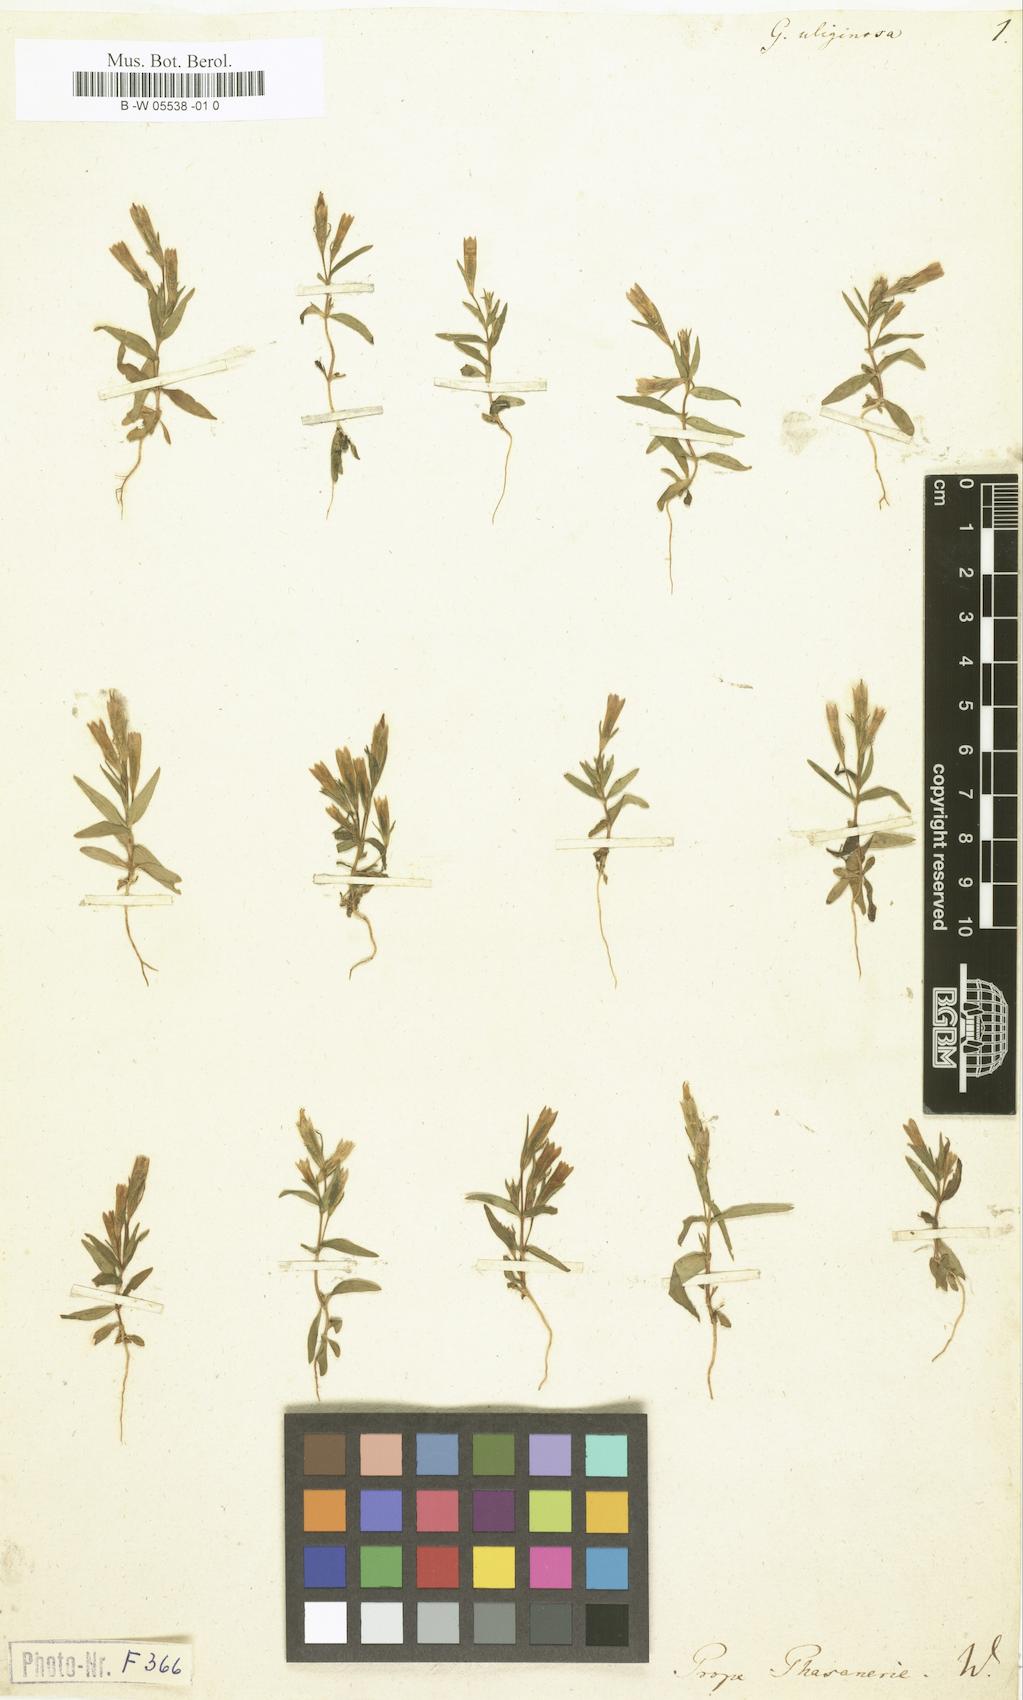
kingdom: Plantae
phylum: Tracheophyta
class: Magnoliopsida
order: Gentianales
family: Gentianaceae
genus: Gentianella
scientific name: Gentianella uliginosa
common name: Dune gentian
